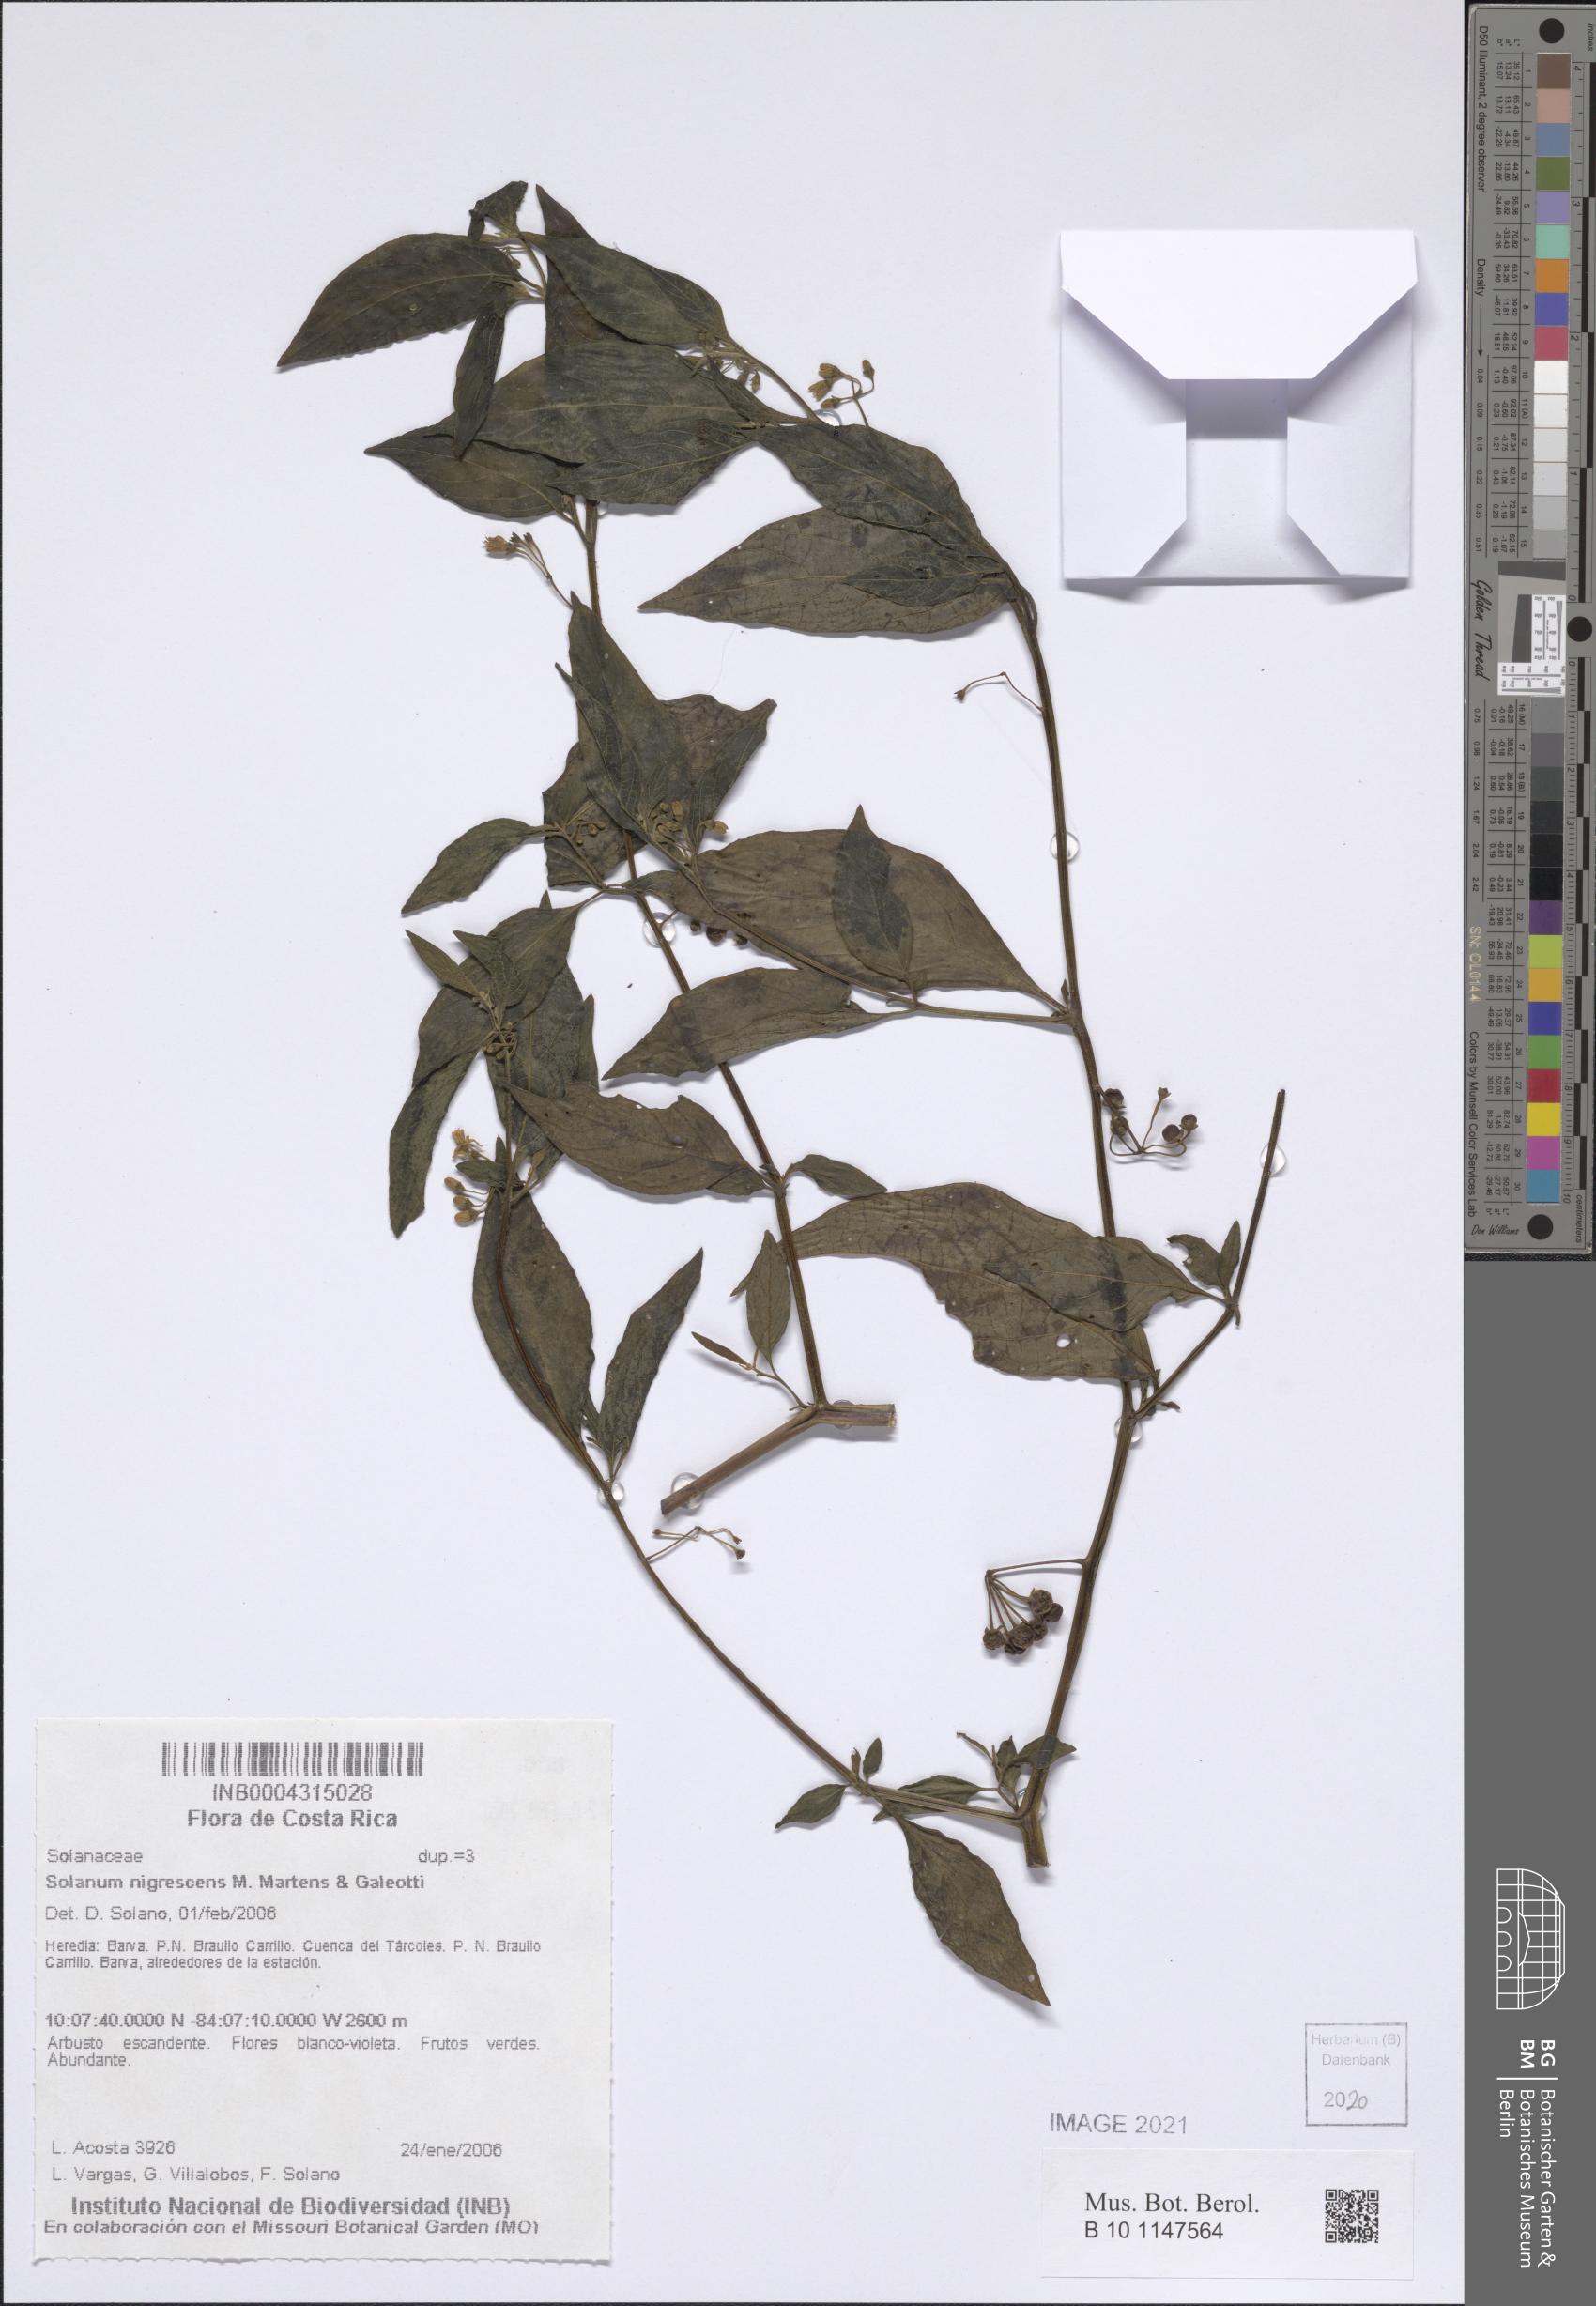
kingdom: Plantae
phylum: Tracheophyta
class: Magnoliopsida
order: Solanales
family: Solanaceae
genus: Solanum
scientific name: Solanum nigrescens
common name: Divine nightshade
